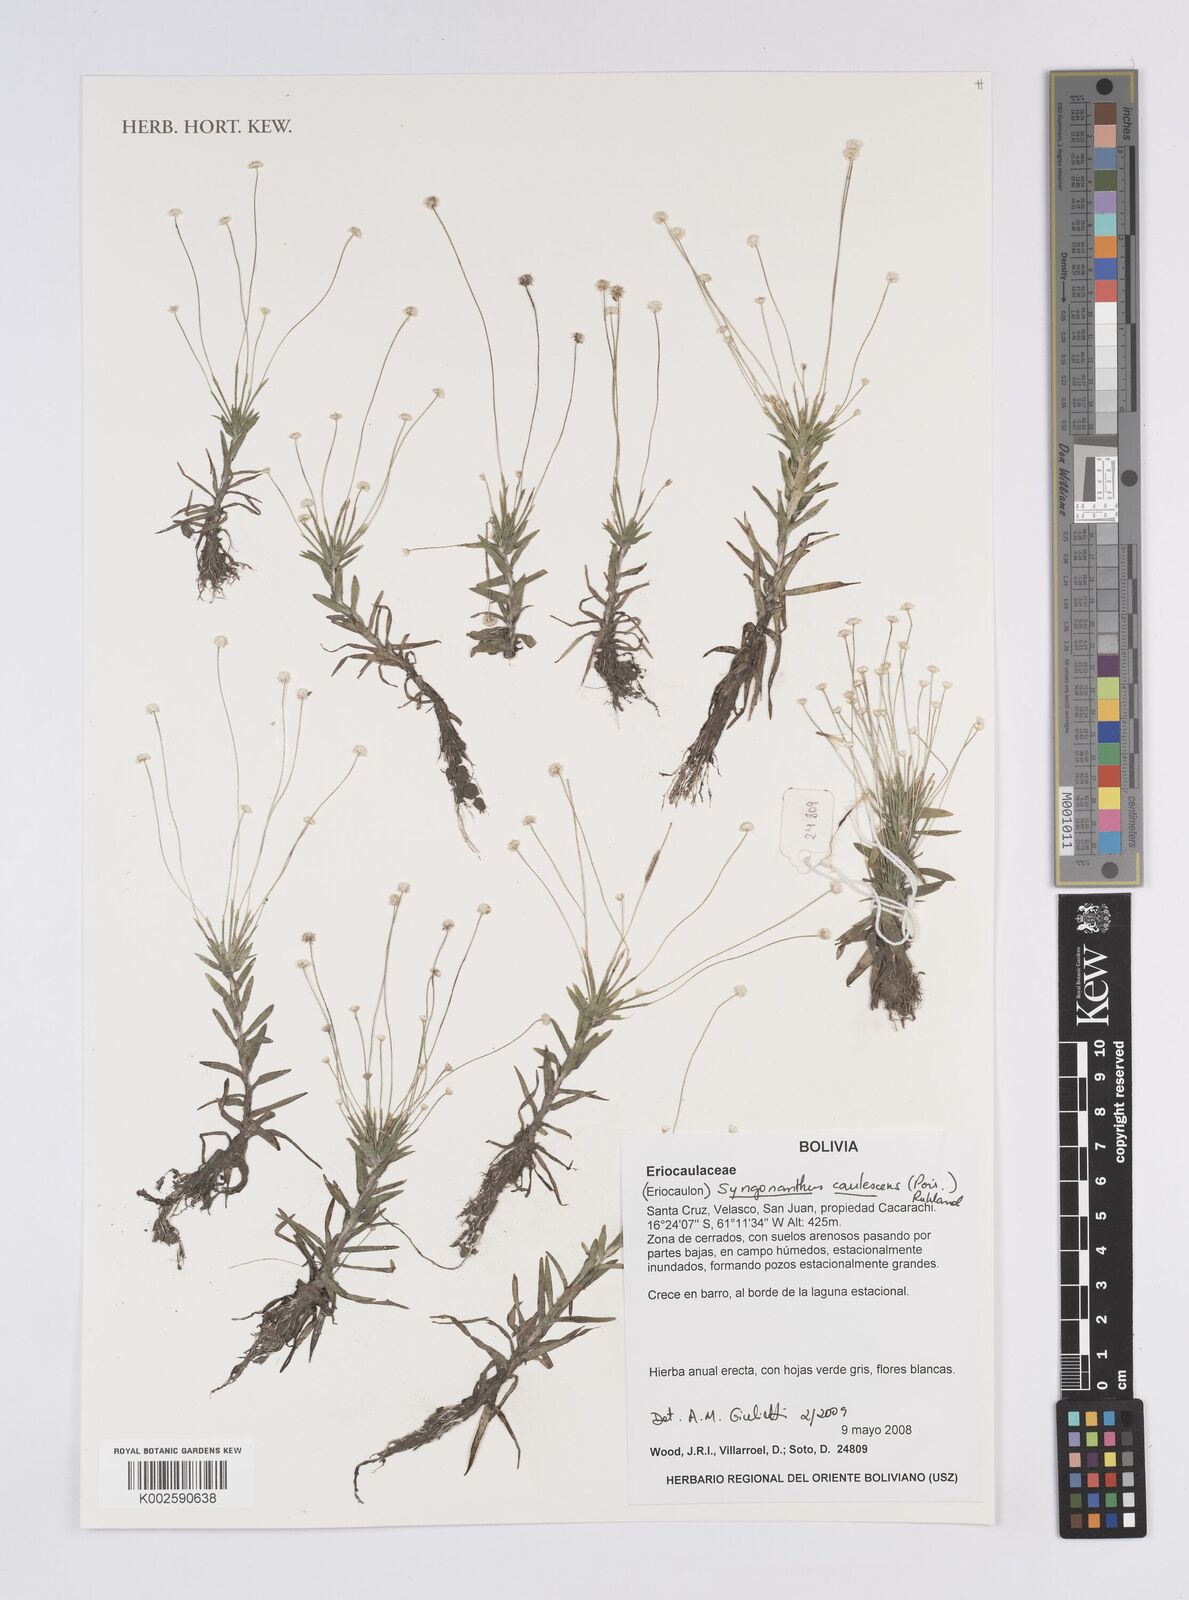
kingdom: Plantae
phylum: Tracheophyta
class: Liliopsida
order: Poales
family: Eriocaulaceae
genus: Syngonanthus
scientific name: Syngonanthus caulescens
